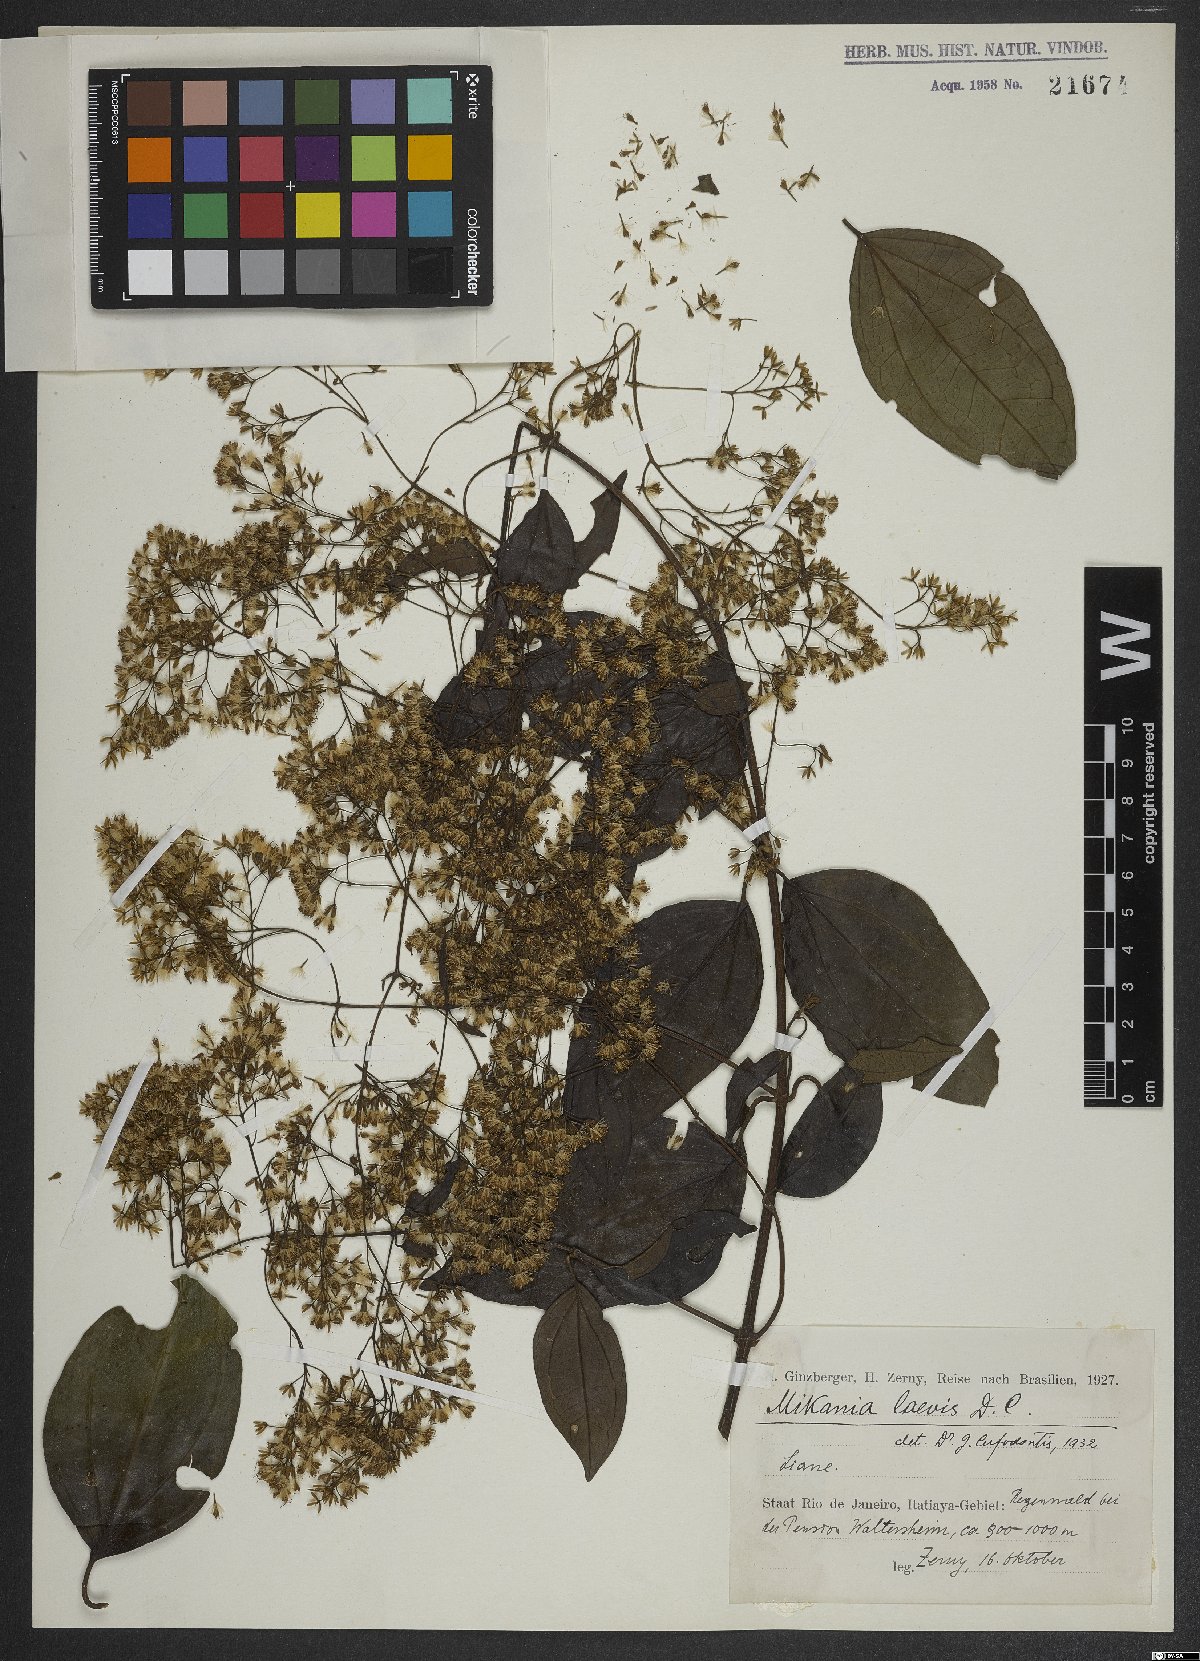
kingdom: Plantae
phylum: Tracheophyta
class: Magnoliopsida
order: Asterales
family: Asteraceae
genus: Mikania
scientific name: Mikania trinervis
